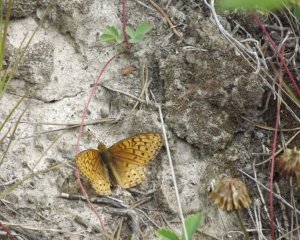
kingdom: Animalia
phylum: Arthropoda
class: Insecta
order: Lepidoptera
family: Nymphalidae
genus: Speyeria
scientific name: Speyeria atlantis
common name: Northwestern Fritillary
